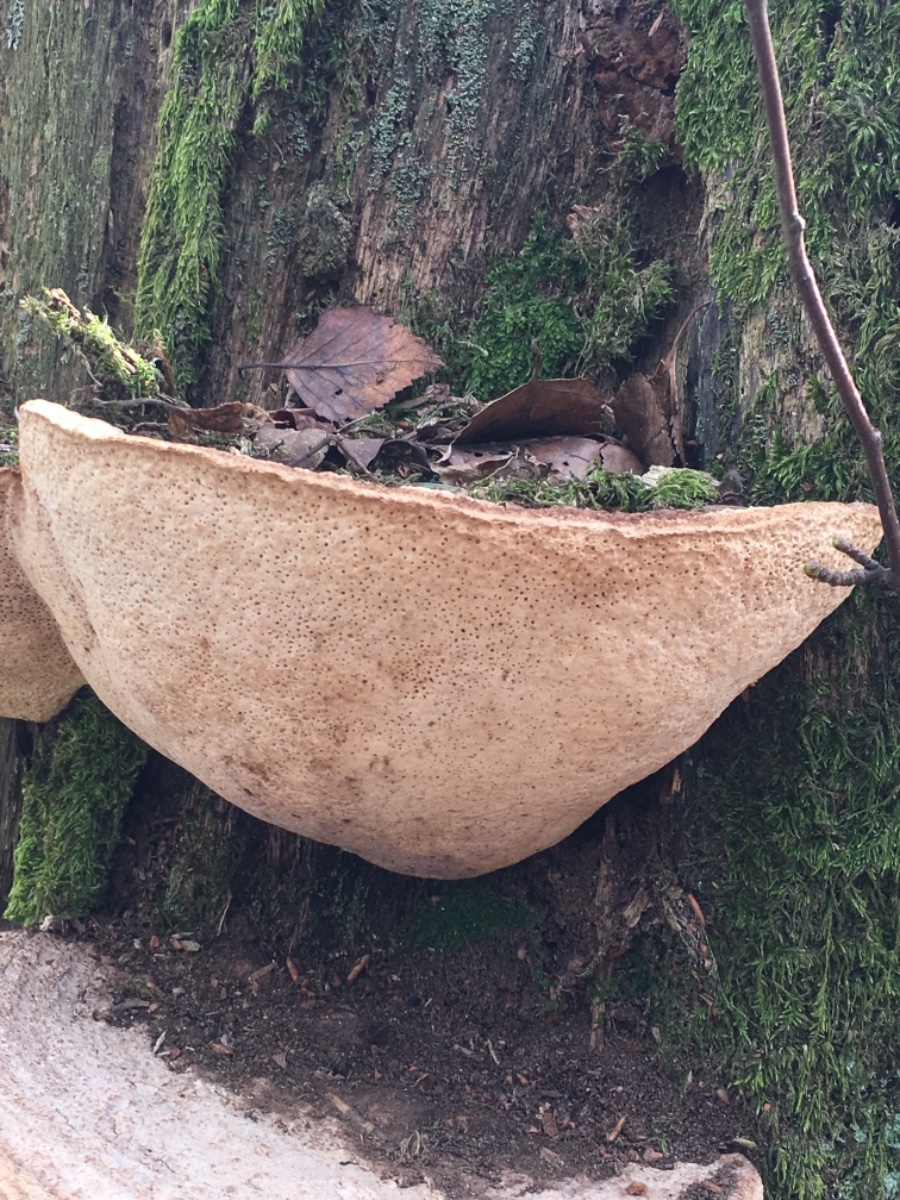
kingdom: Fungi
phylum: Basidiomycota
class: Agaricomycetes
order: Polyporales
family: Fomitopsidaceae
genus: Daedalea
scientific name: Daedalea quercina
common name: ege-labyrintsvamp
